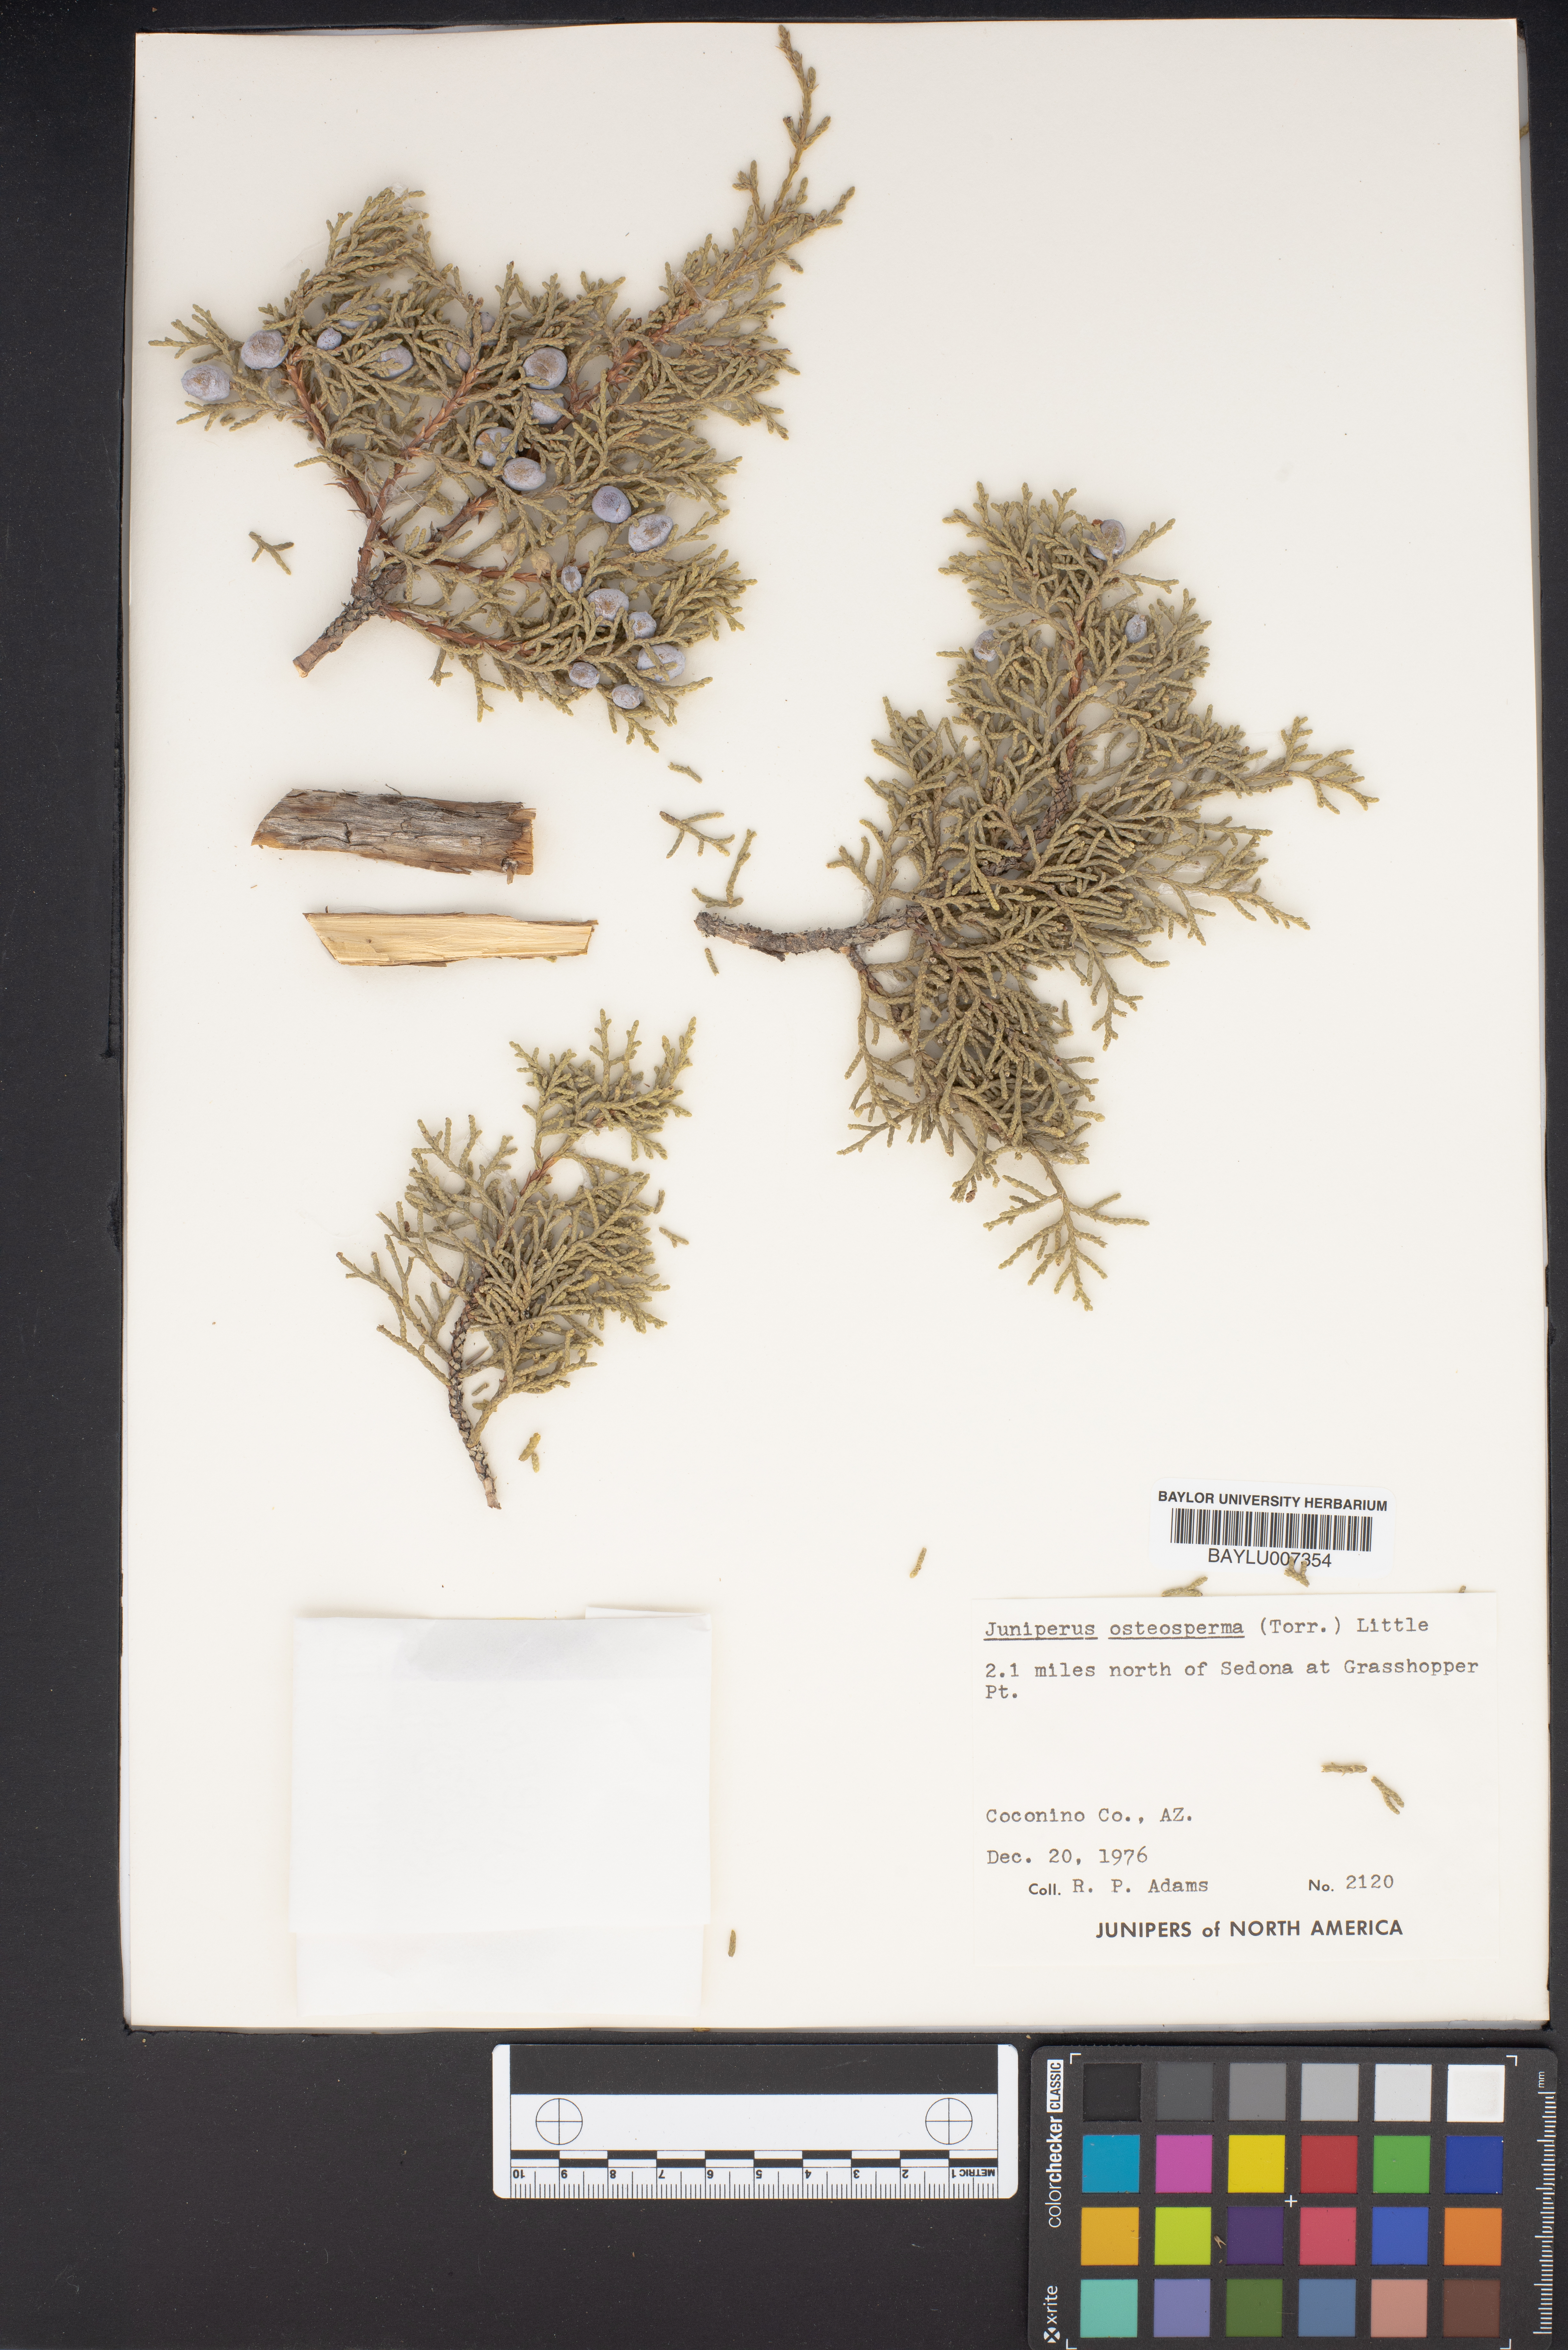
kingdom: Plantae
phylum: Tracheophyta
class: Pinopsida
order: Pinales
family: Cupressaceae
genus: Juniperus
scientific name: Juniperus osteosperma
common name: Utah juniper
